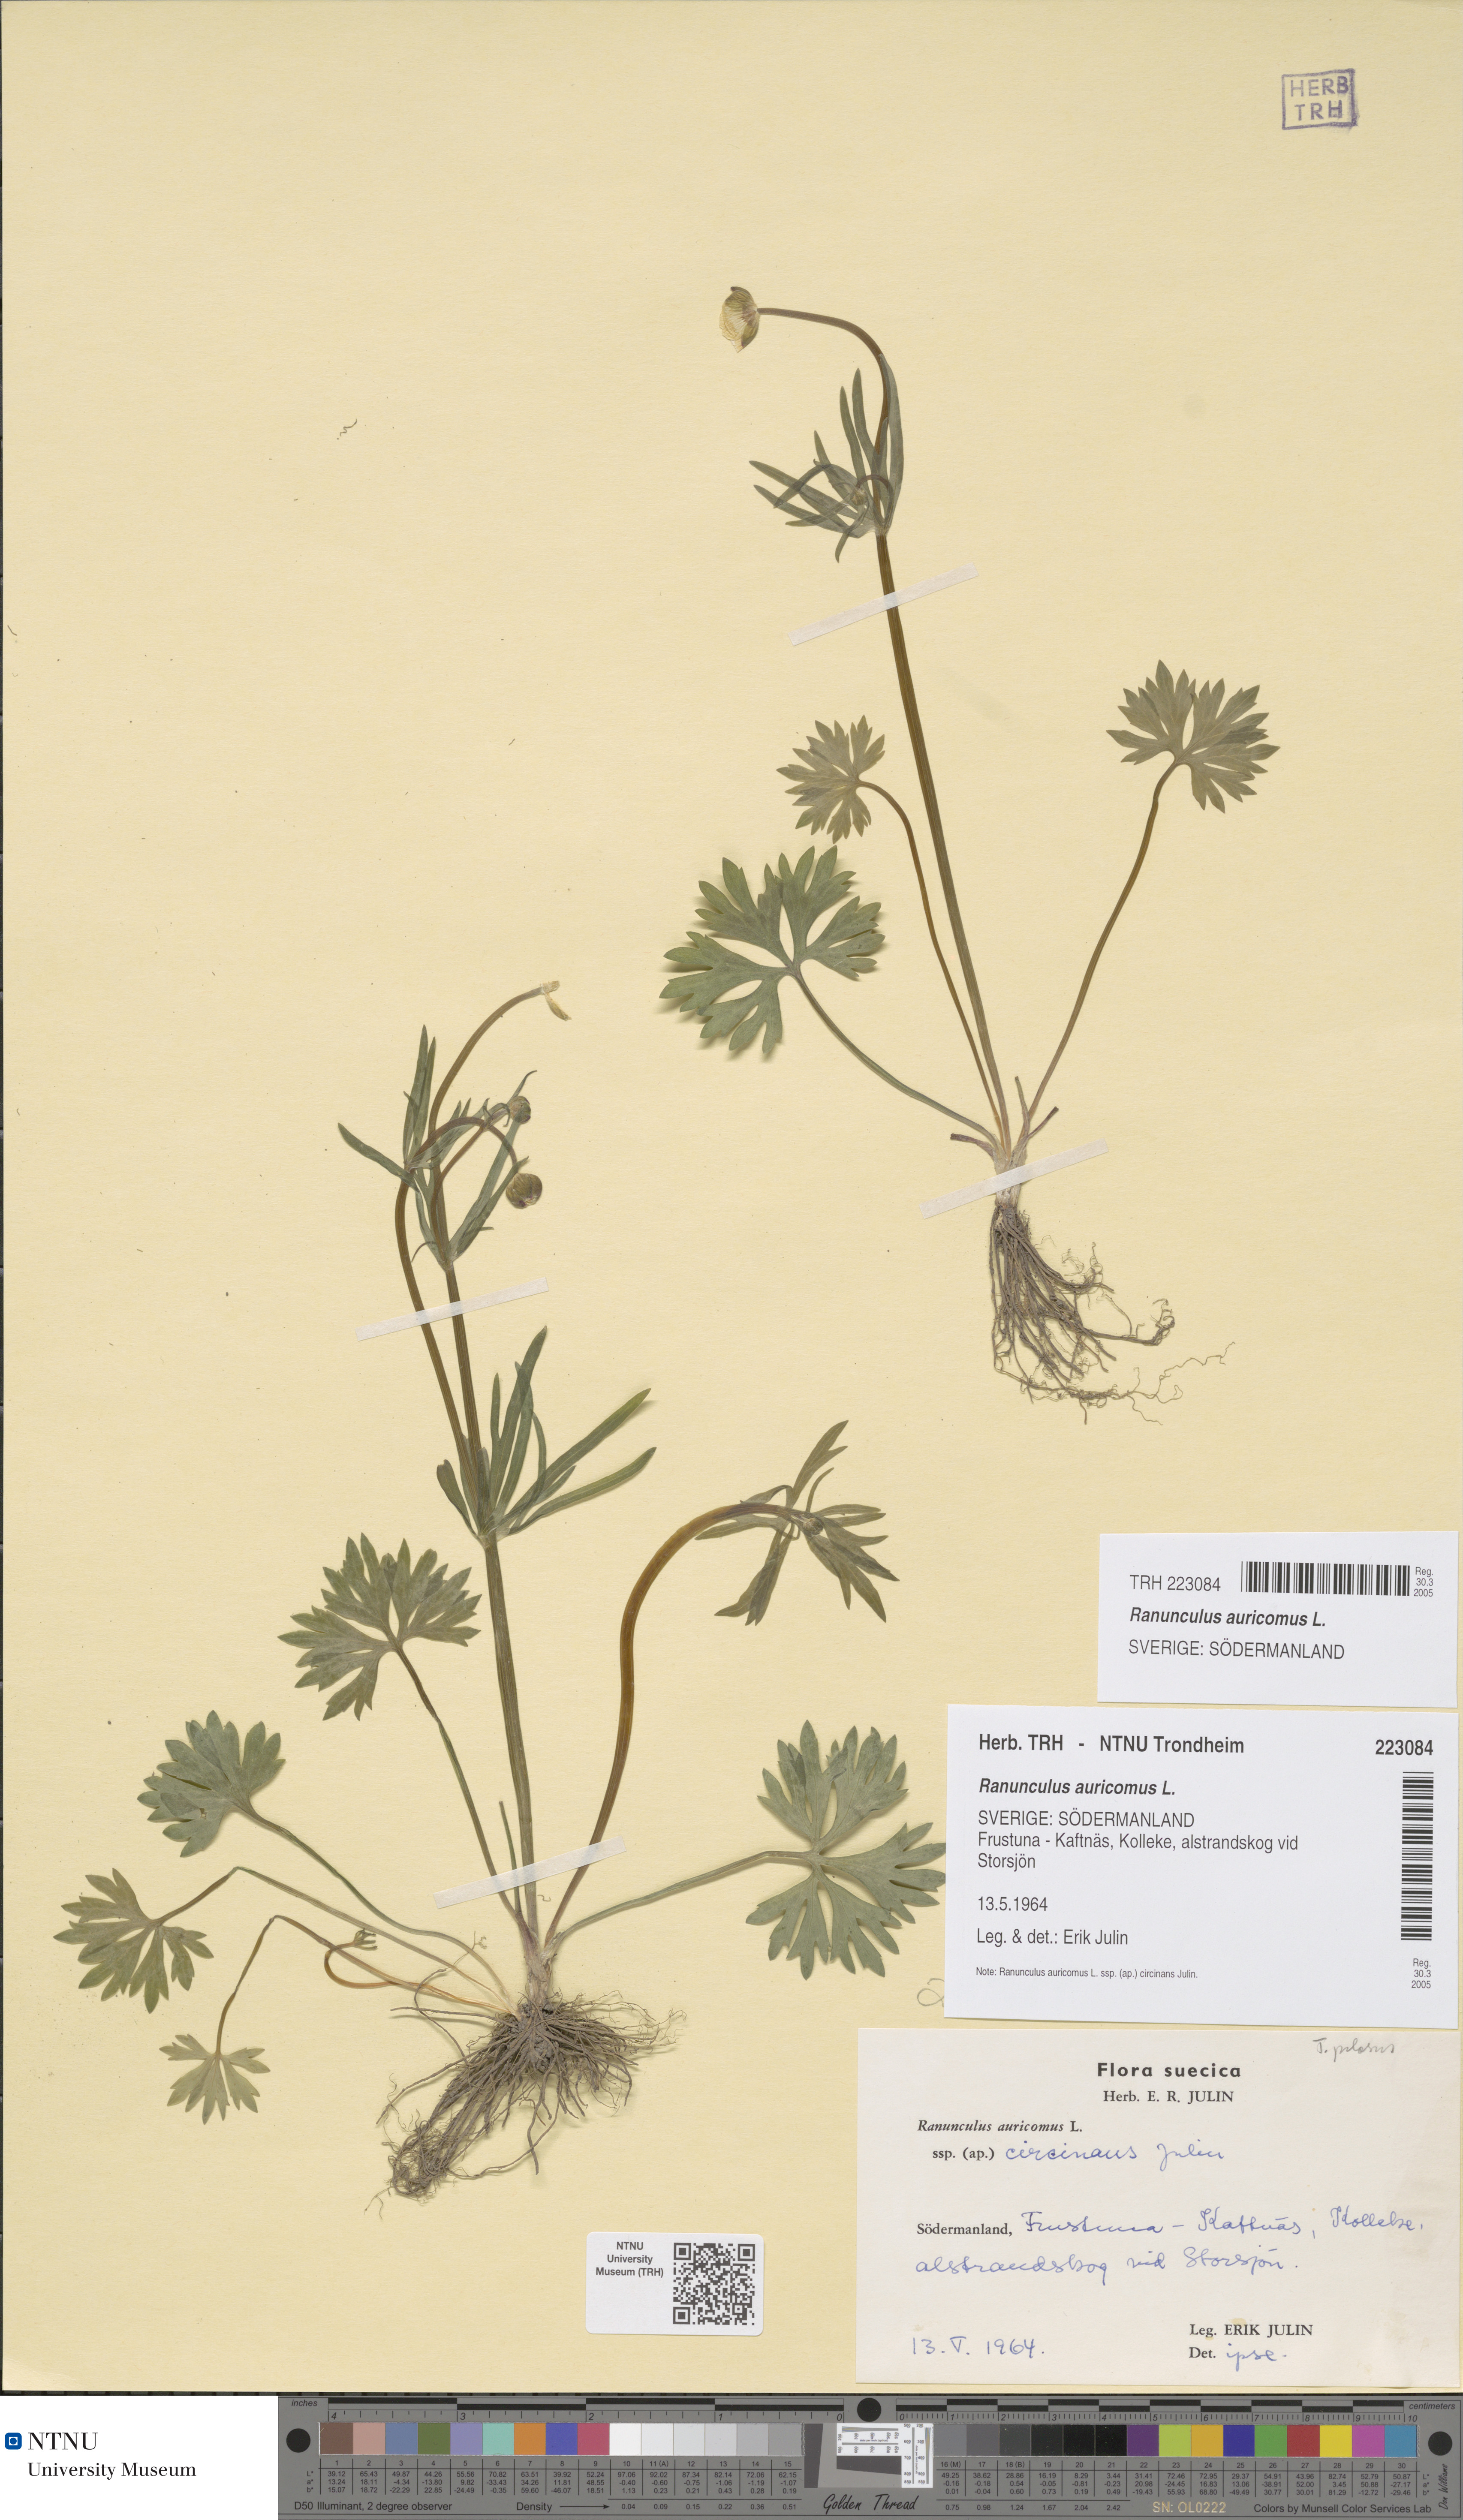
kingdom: Plantae
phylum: Tracheophyta
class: Magnoliopsida
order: Ranunculales
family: Ranunculaceae
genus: Ranunculus
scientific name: Ranunculus auricomus
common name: Goldilocks buttercup
